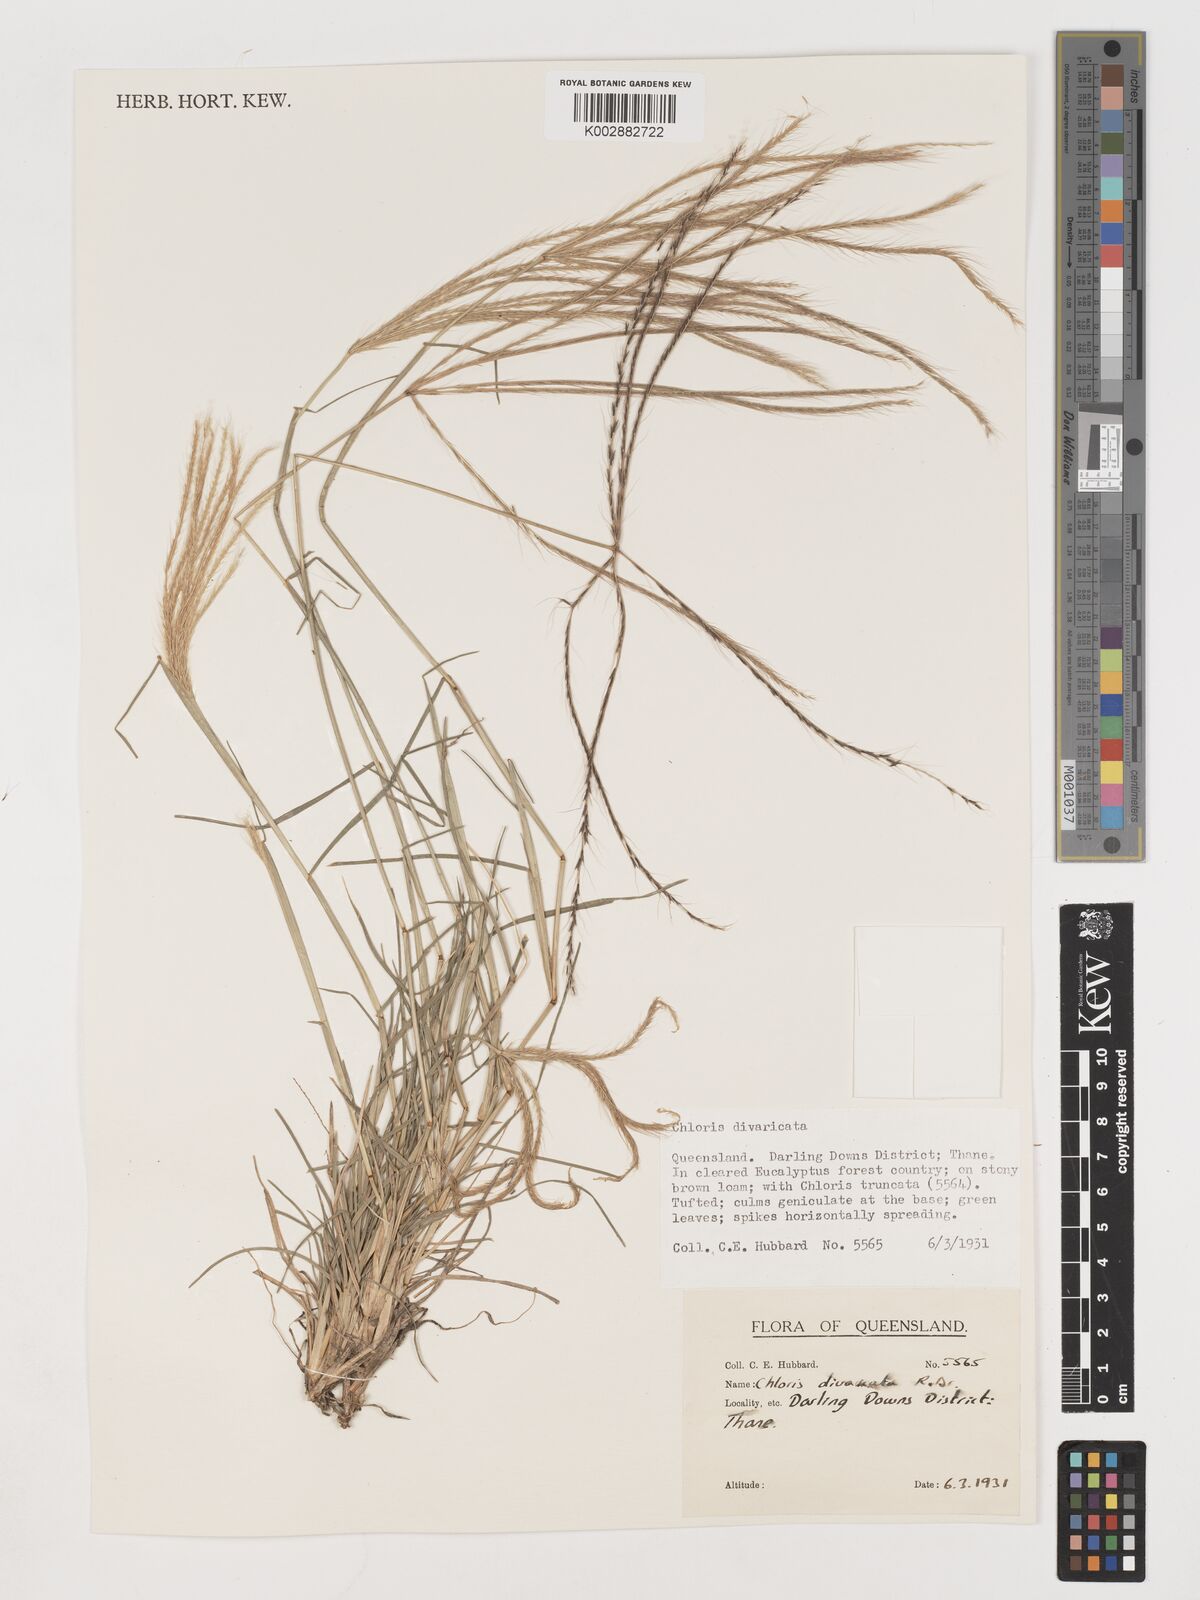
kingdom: Plantae
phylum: Tracheophyta
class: Liliopsida
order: Poales
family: Poaceae
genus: Chloris
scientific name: Chloris divaricata
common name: Spreading windmill grass
